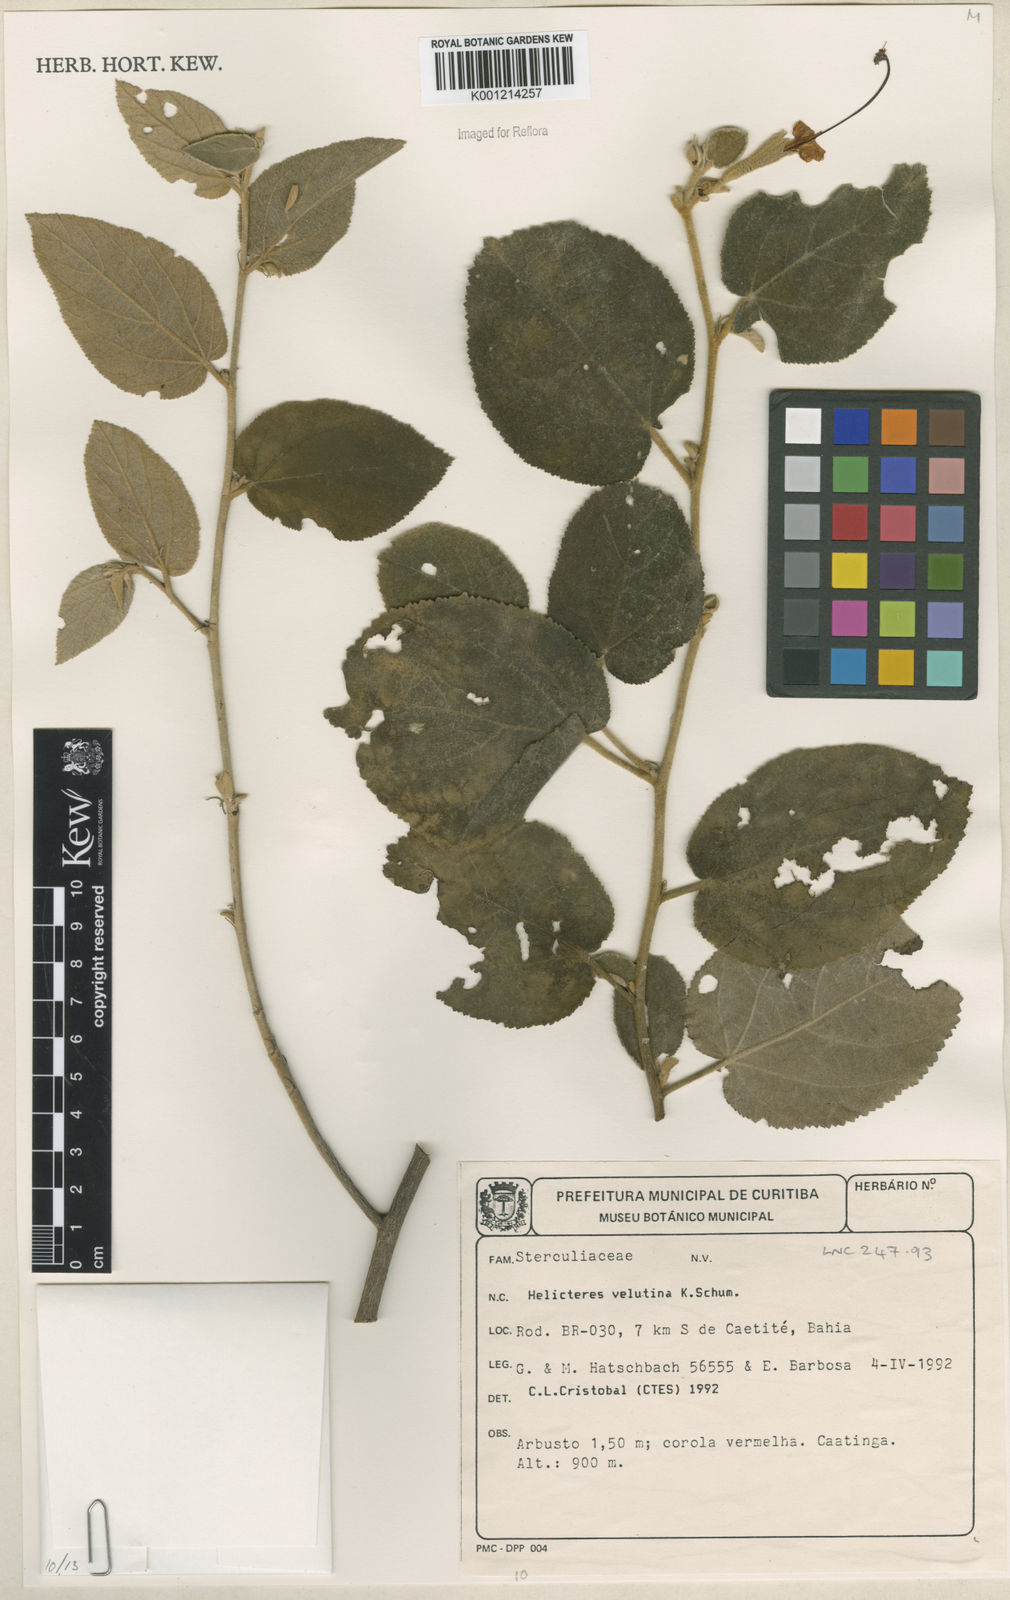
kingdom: Plantae
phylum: Tracheophyta
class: Magnoliopsida
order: Malvales
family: Malvaceae
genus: Helicteres
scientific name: Helicteres velutina
